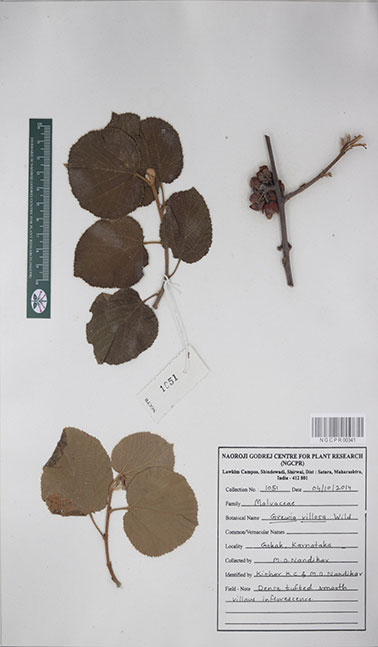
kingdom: Plantae
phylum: Tracheophyta
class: Magnoliopsida
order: Malvales
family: Malvaceae
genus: Grewia
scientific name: Grewia villosa
